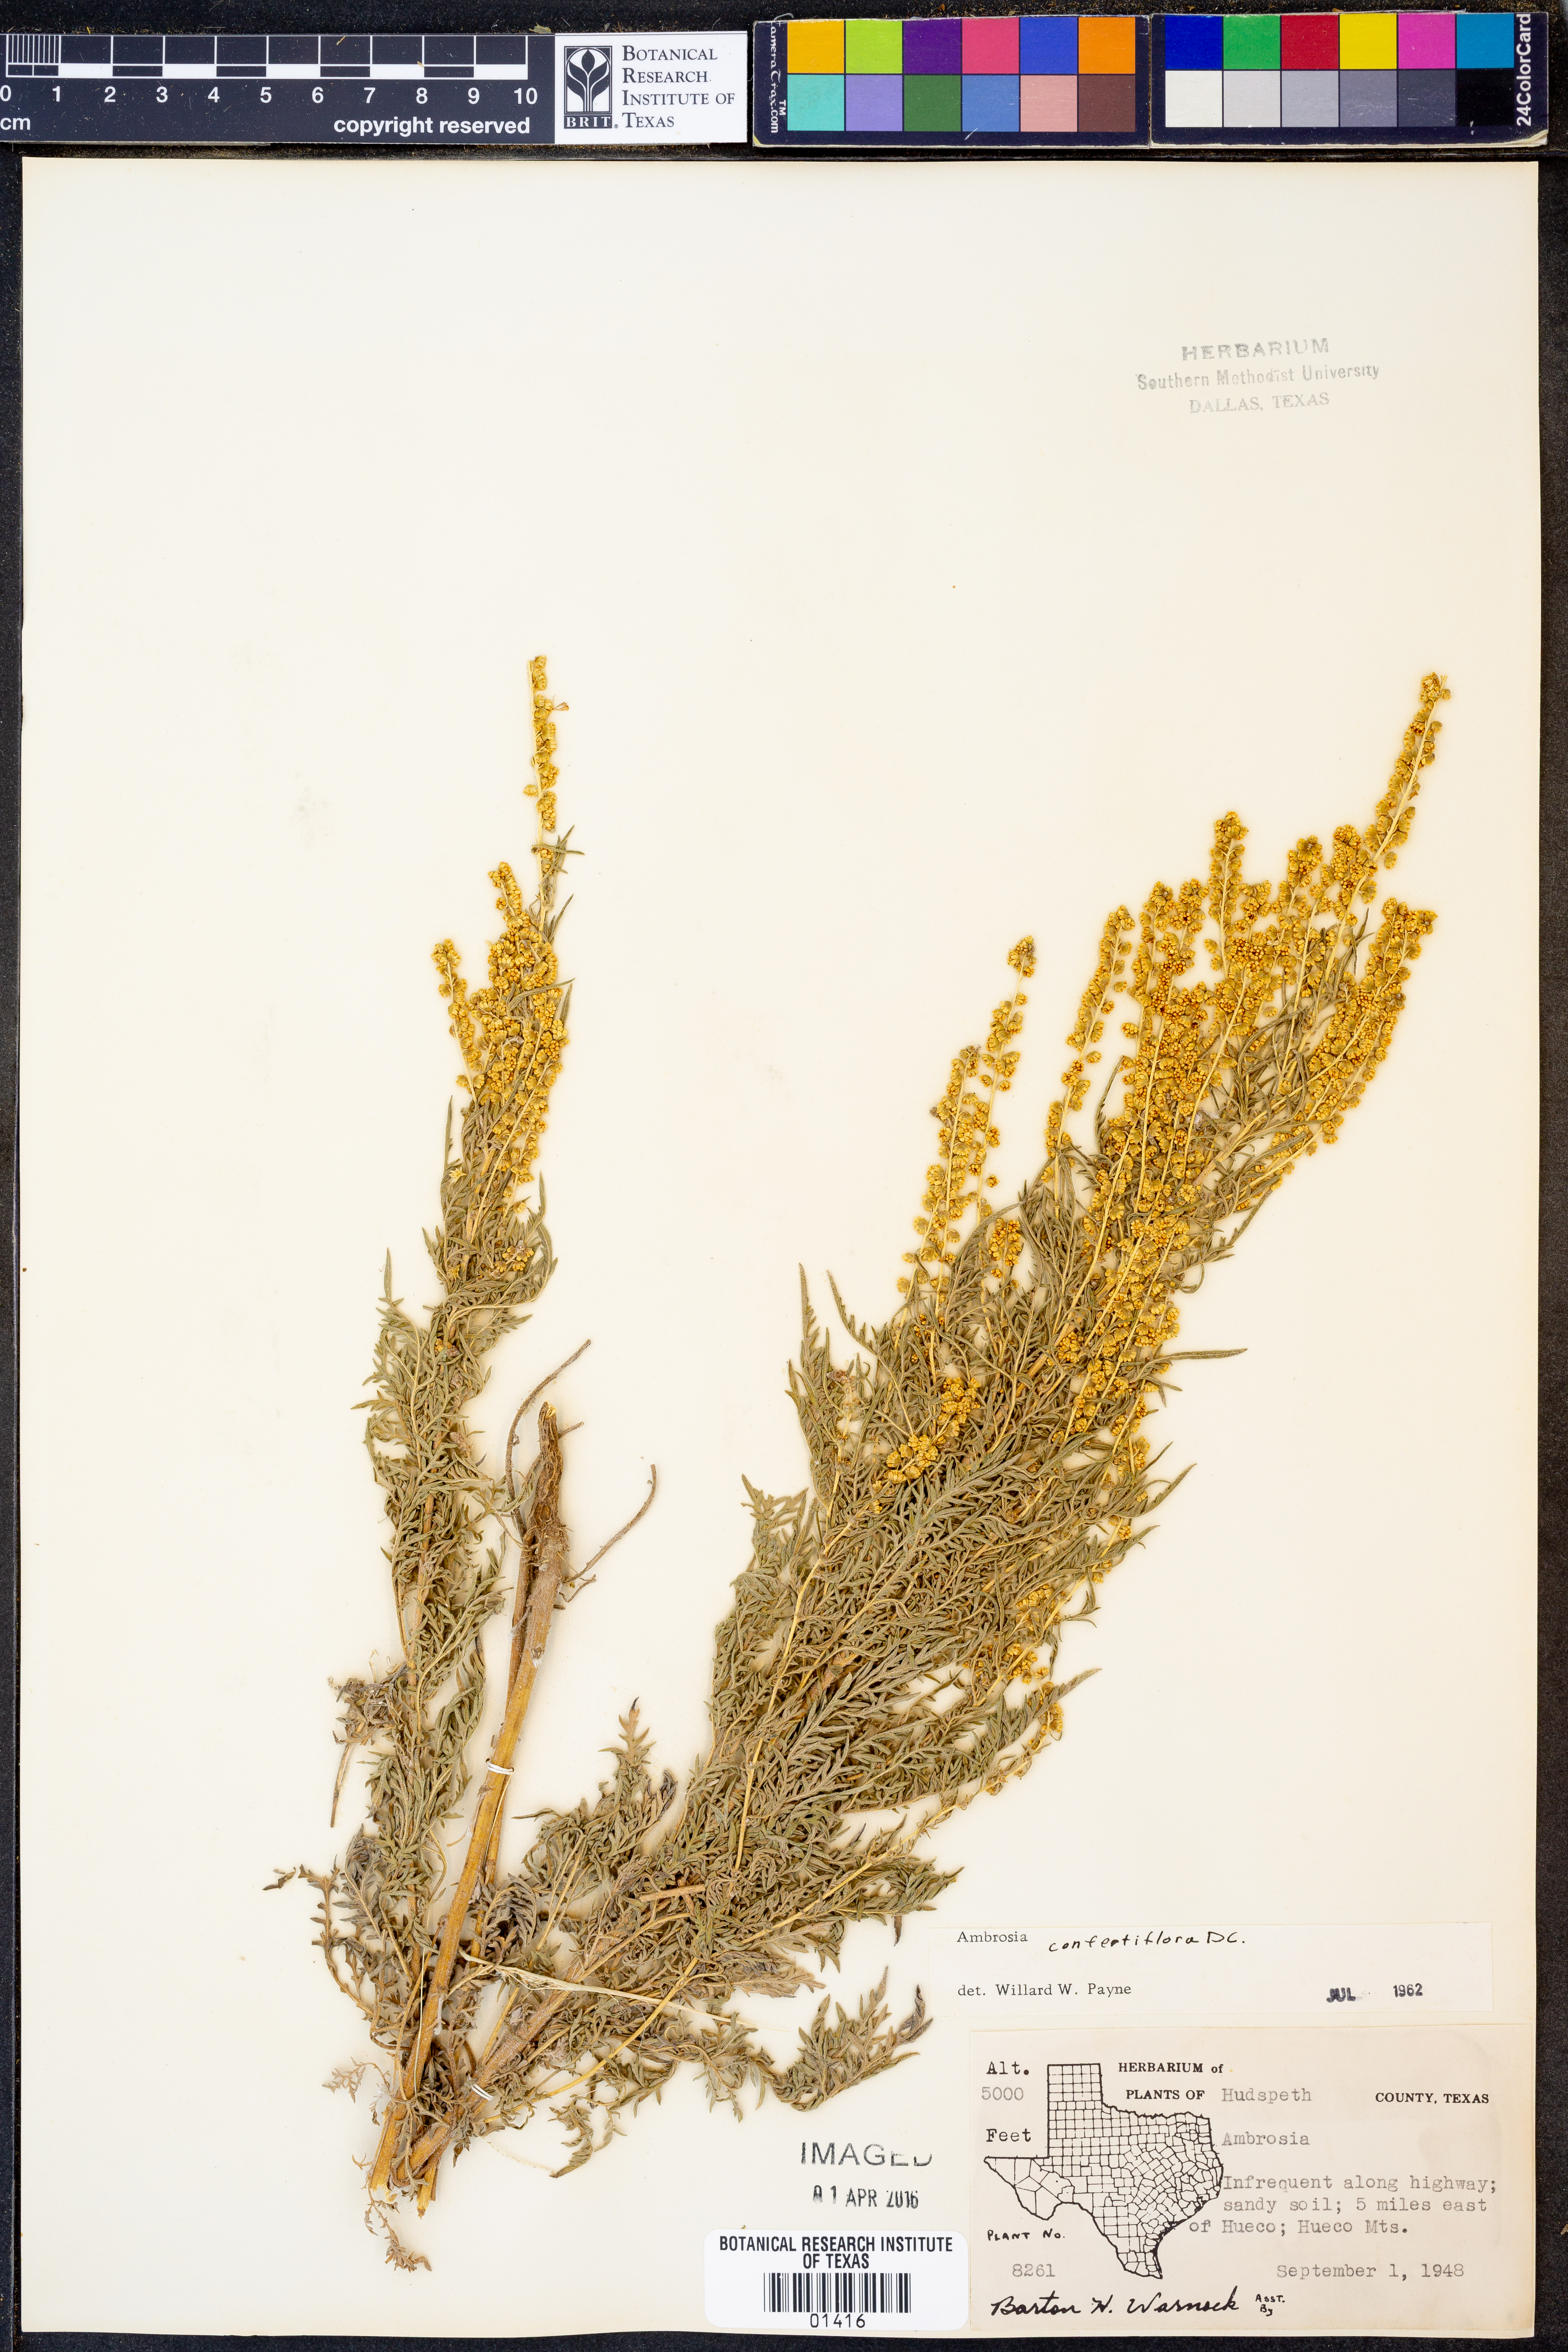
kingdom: Plantae
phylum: Tracheophyta
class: Magnoliopsida
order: Asterales
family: Asteraceae
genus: Ambrosia
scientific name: Ambrosia confertiflora
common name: Bur ragweed
